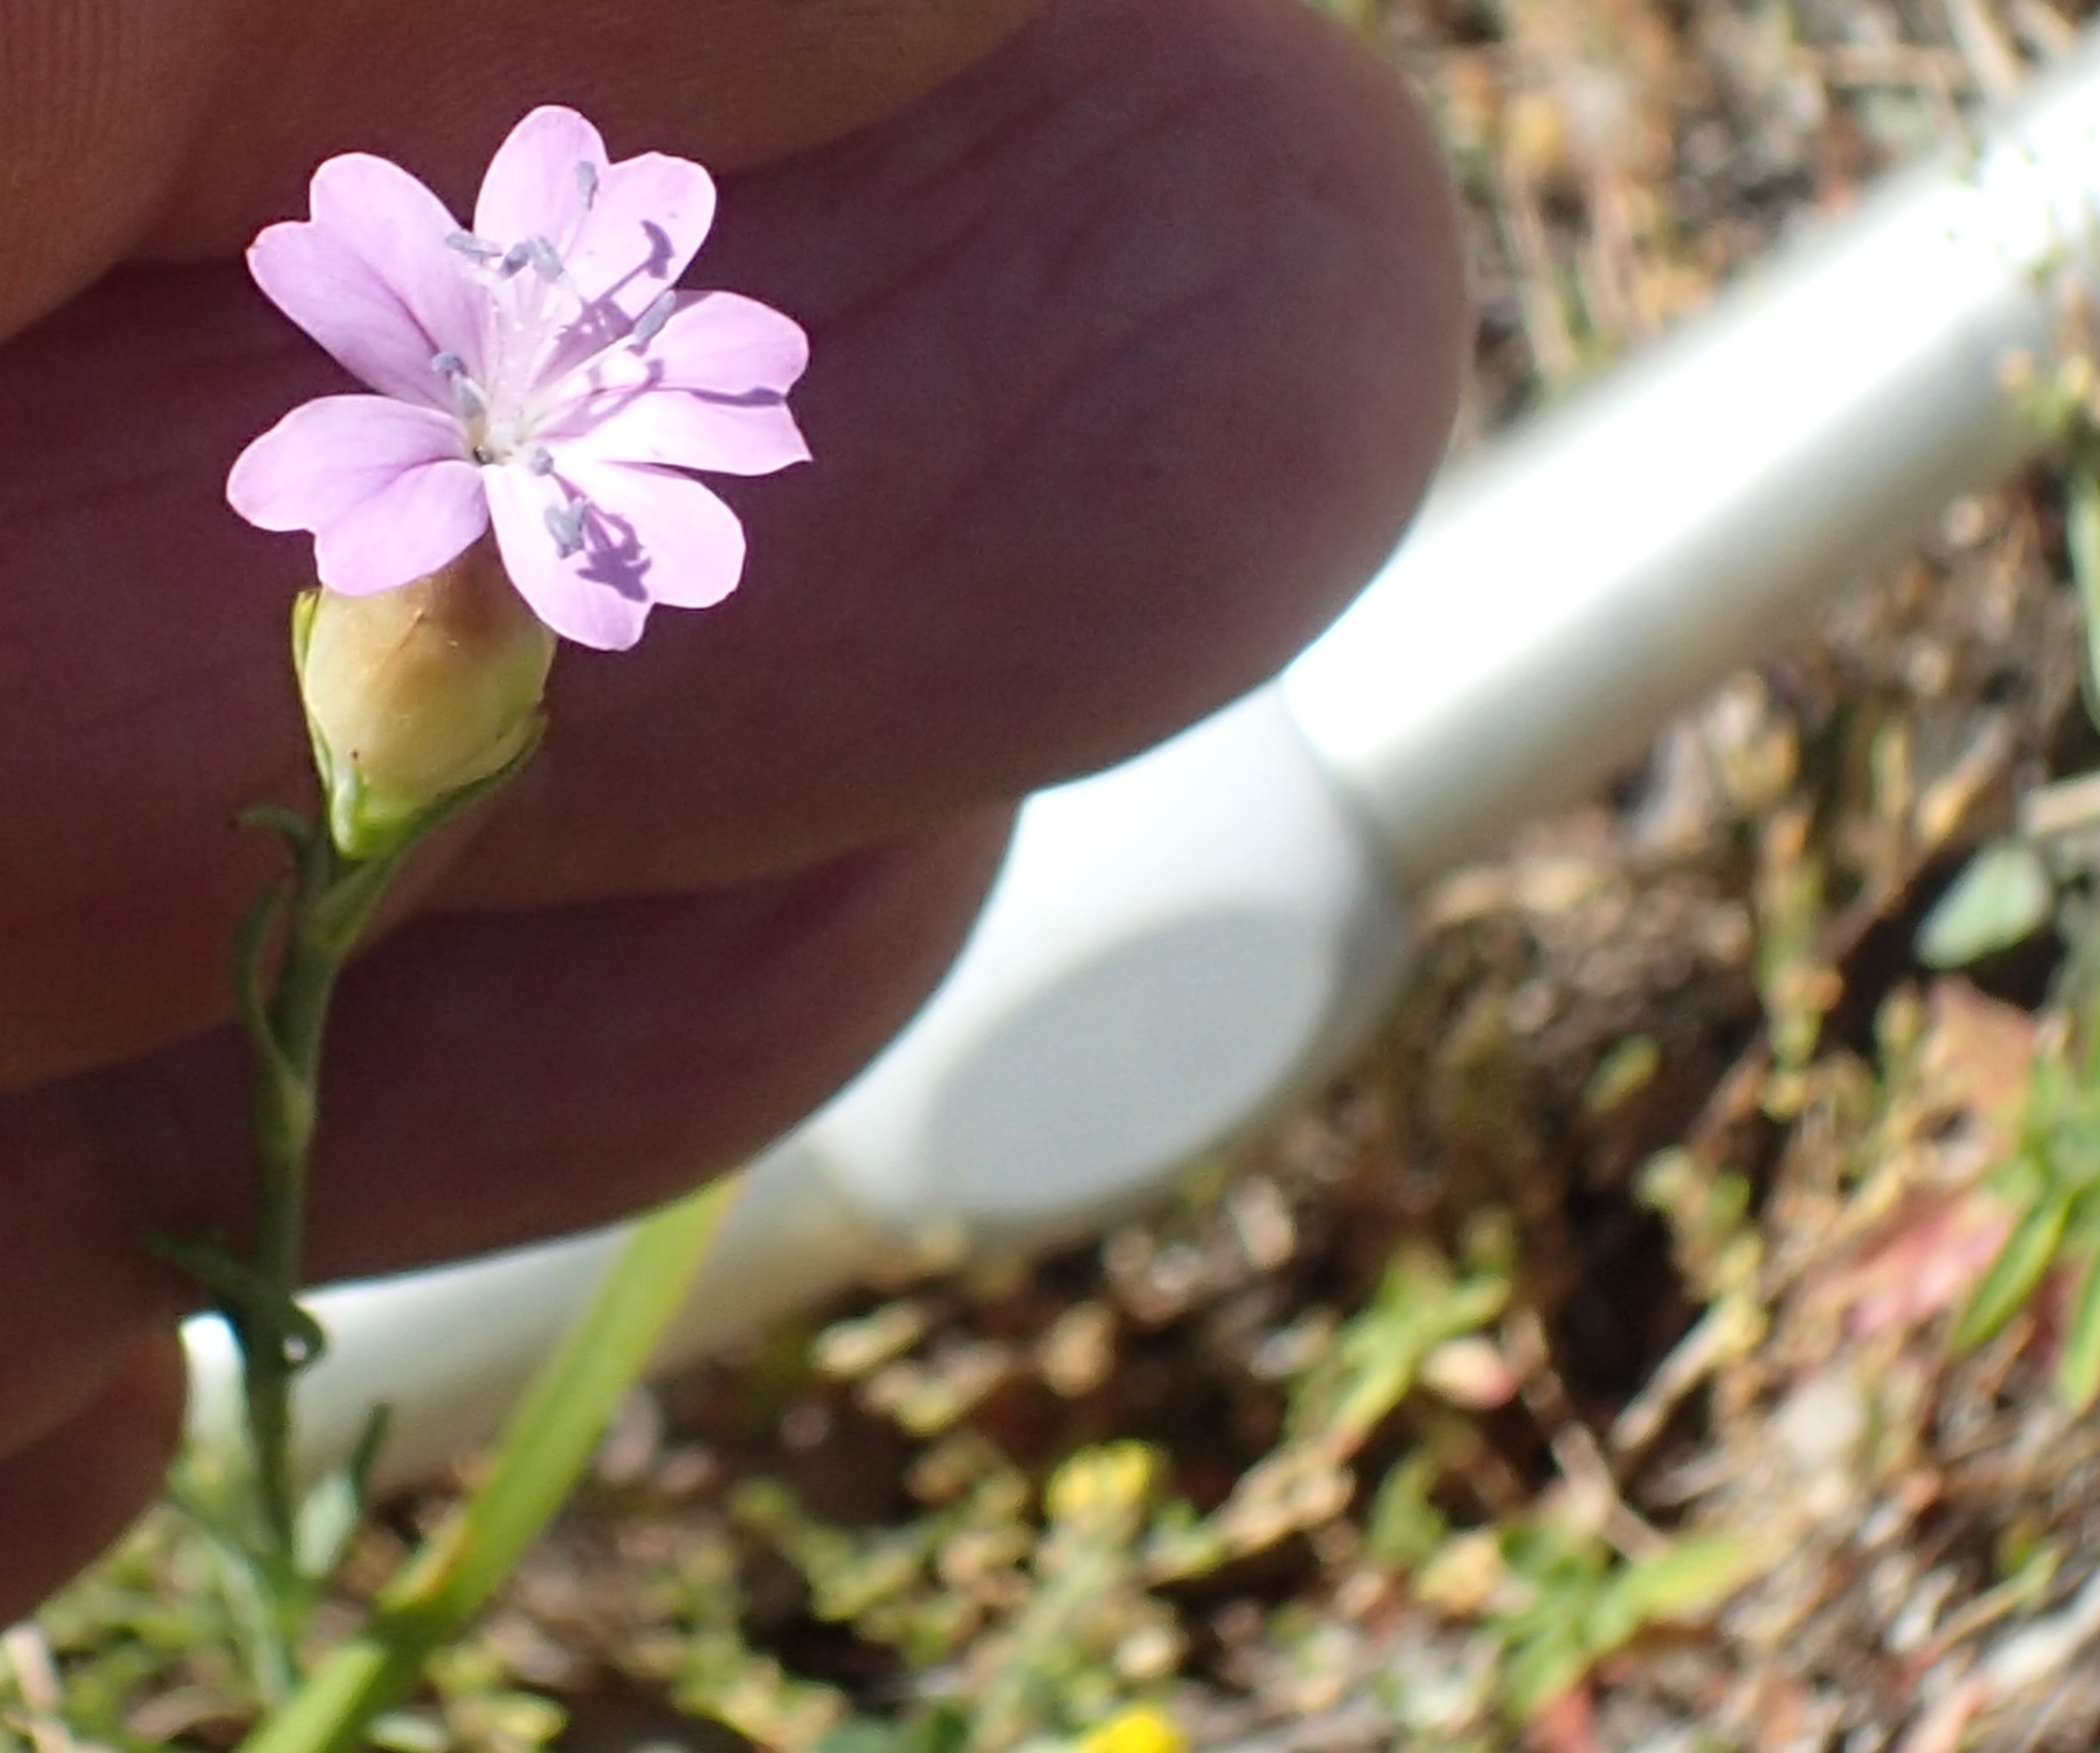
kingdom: Plantae
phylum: Tracheophyta
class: Magnoliopsida
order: Caryophyllales
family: Caryophyllaceae
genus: Petrorhagia
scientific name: Petrorhagia prolifera
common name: Knopnellike
